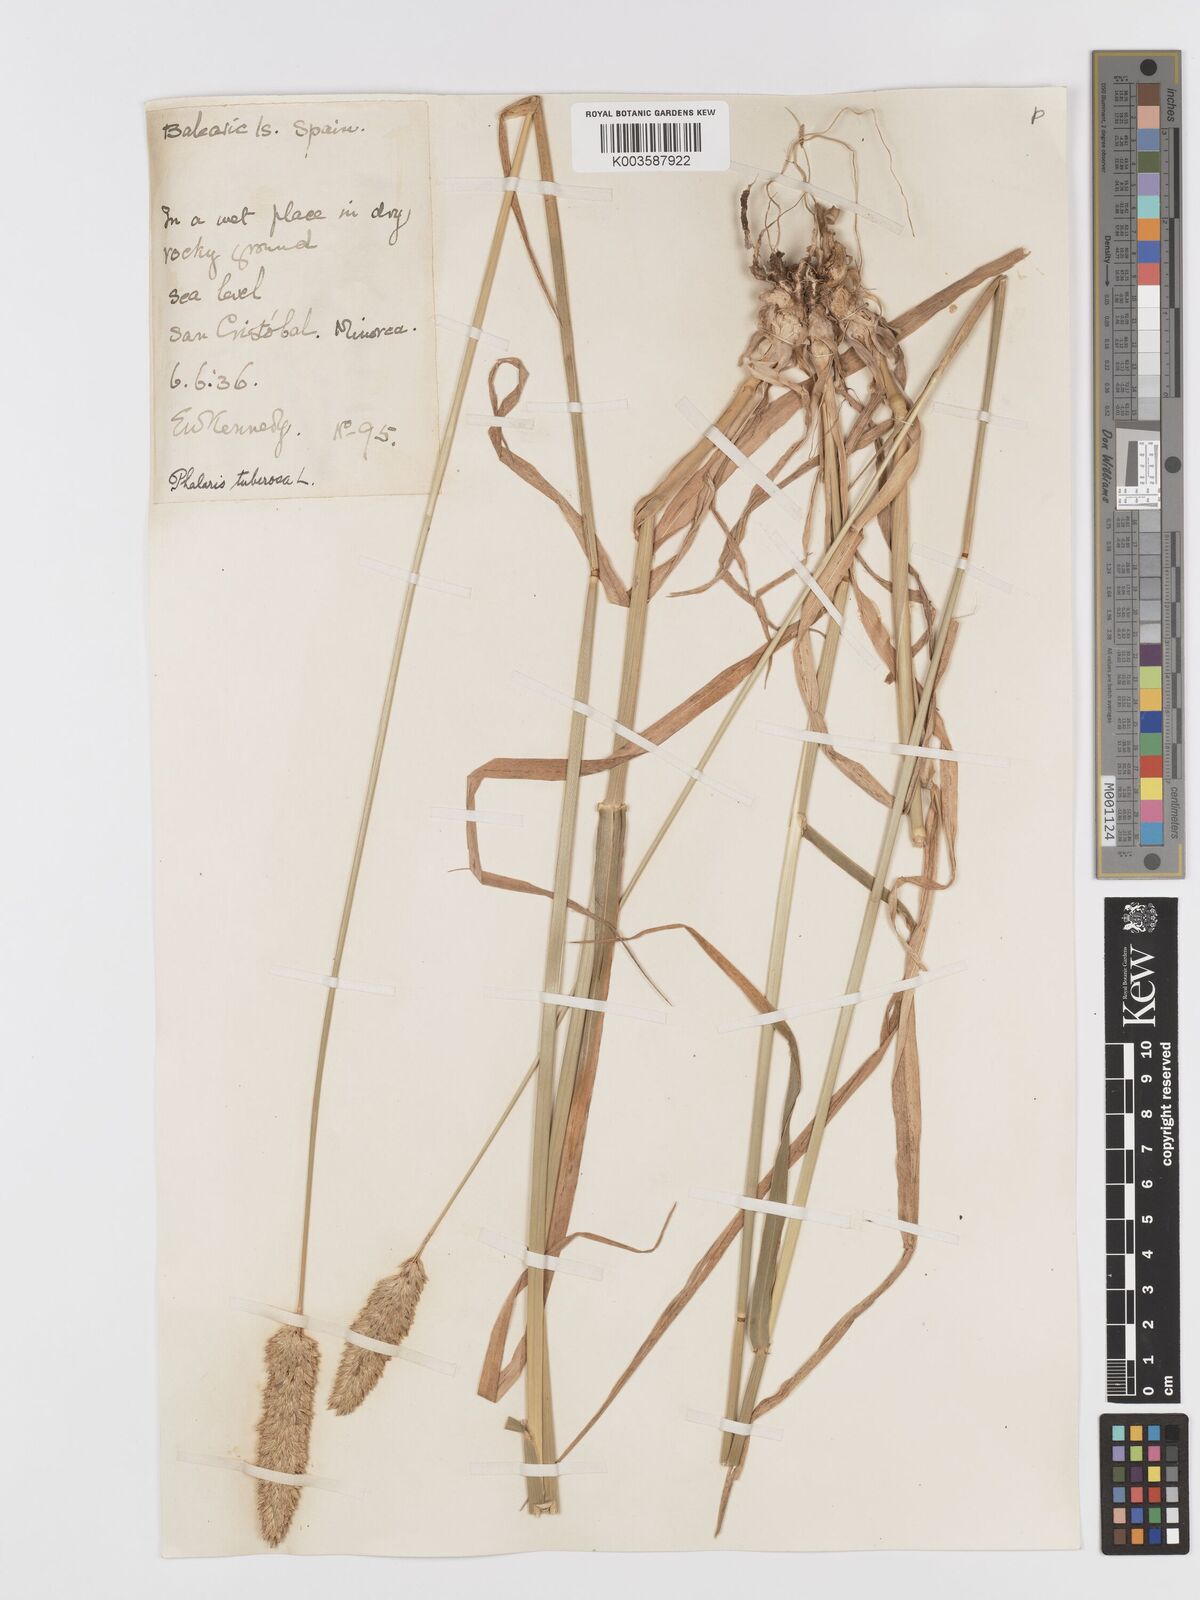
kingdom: Plantae
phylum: Tracheophyta
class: Liliopsida
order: Poales
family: Poaceae
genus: Phalaris
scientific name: Phalaris
